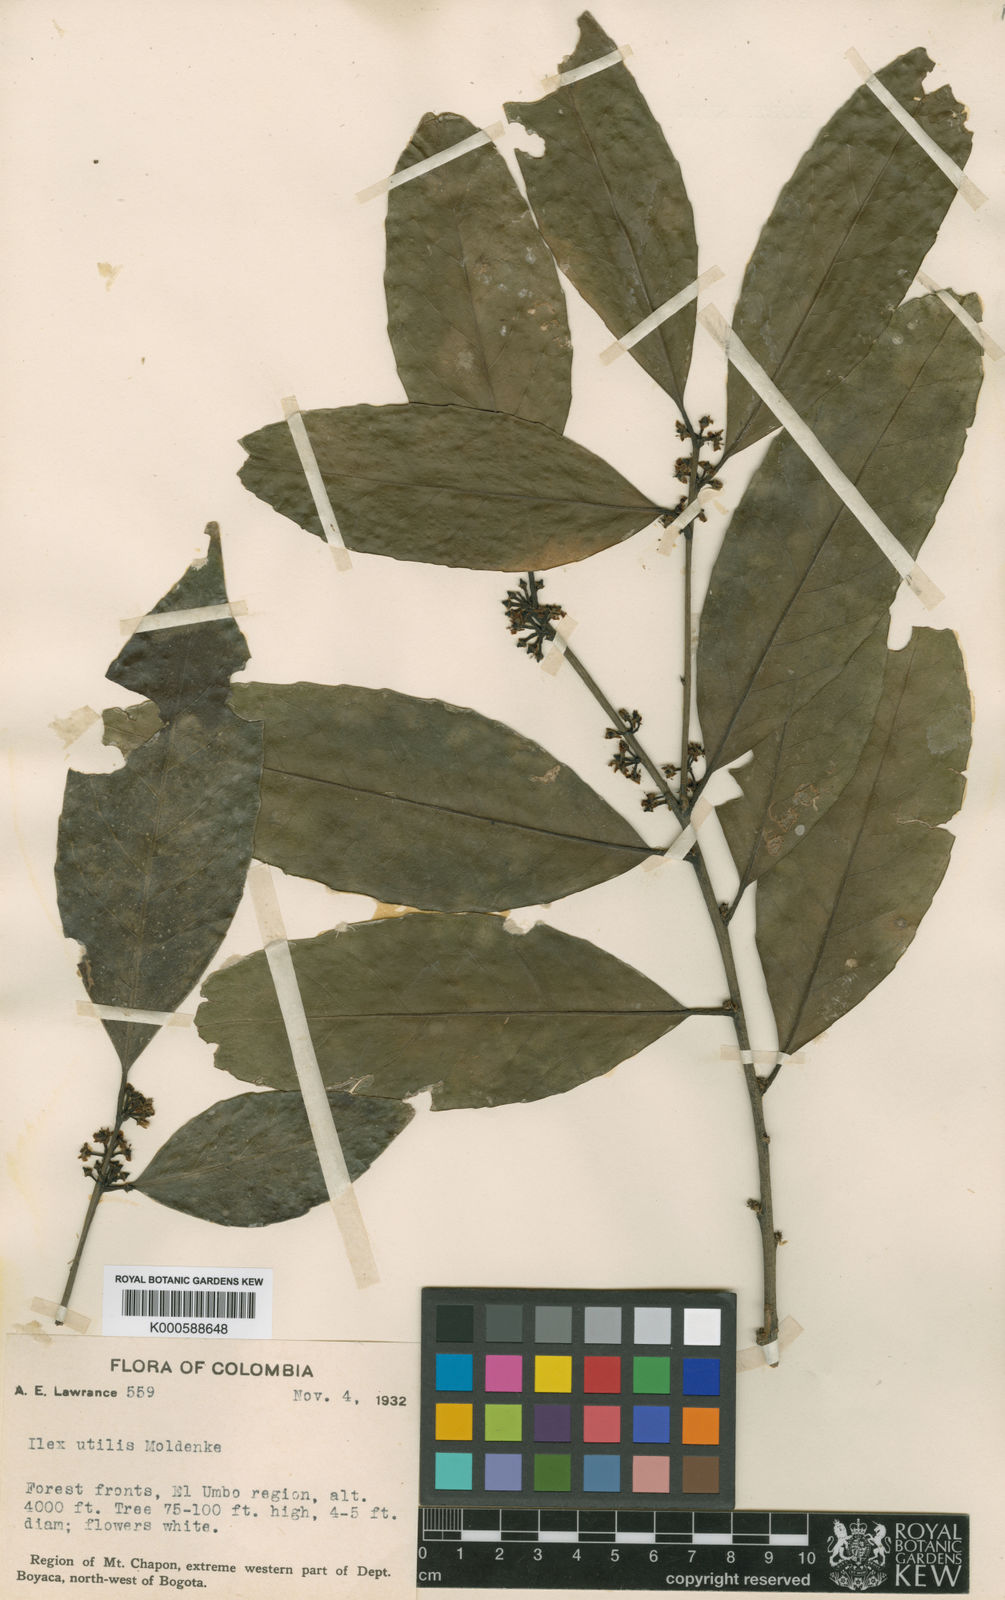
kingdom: Plantae
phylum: Tracheophyta
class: Magnoliopsida
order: Aquifoliales
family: Aquifoliaceae
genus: Ilex
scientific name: Ilex guayusa
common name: Guayusa
